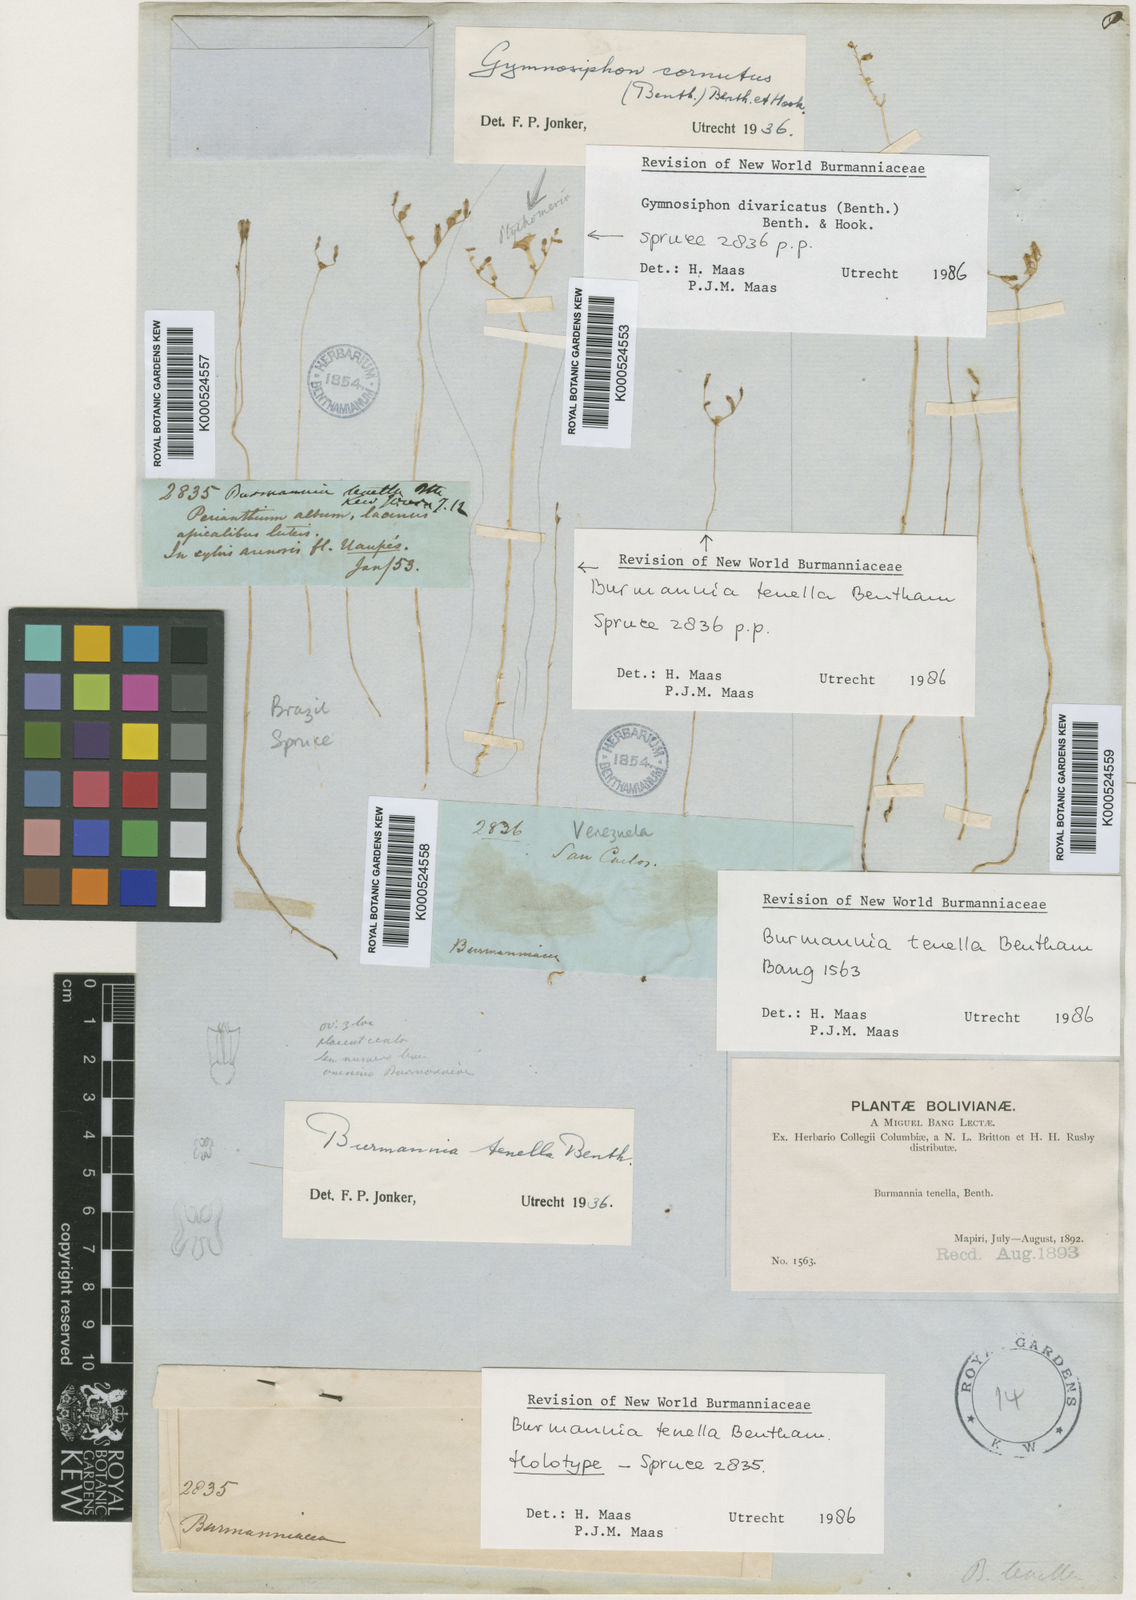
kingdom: Plantae
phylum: Tracheophyta
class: Liliopsida
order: Dioscoreales
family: Burmanniaceae
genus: Burmannia
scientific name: Burmannia tenella
